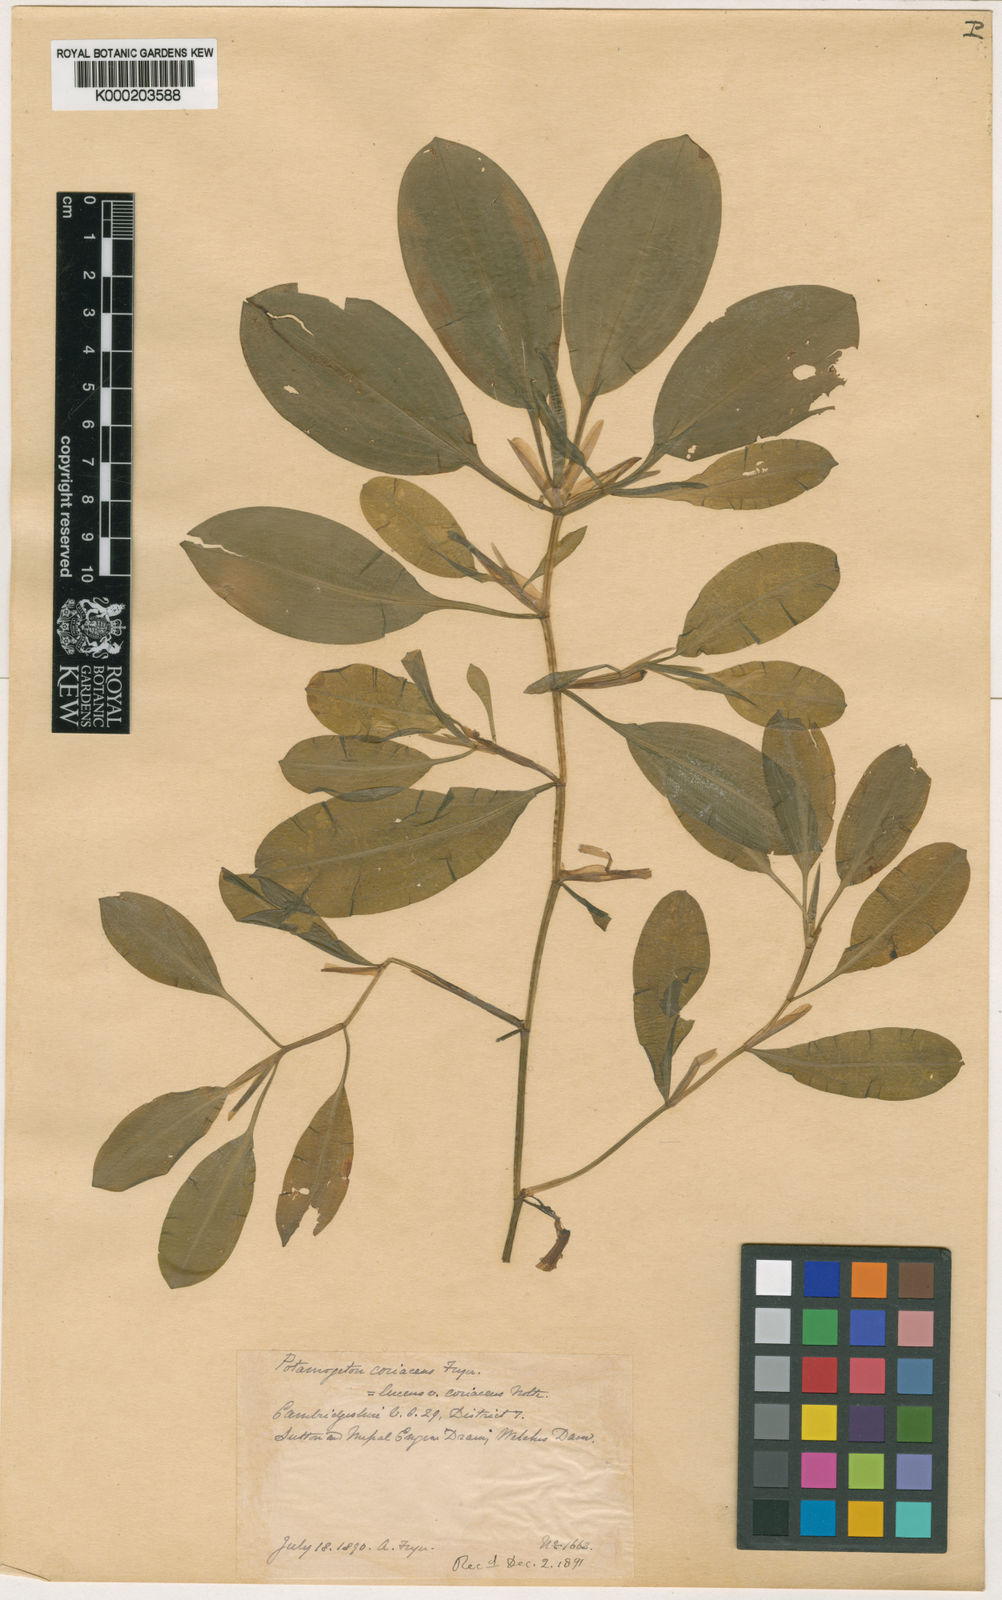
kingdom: Plantae
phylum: Tracheophyta
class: Liliopsida
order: Alismatales
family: Potamogetonaceae
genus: Potamogeton
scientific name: Potamogeton lucens
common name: Shining pondweed
